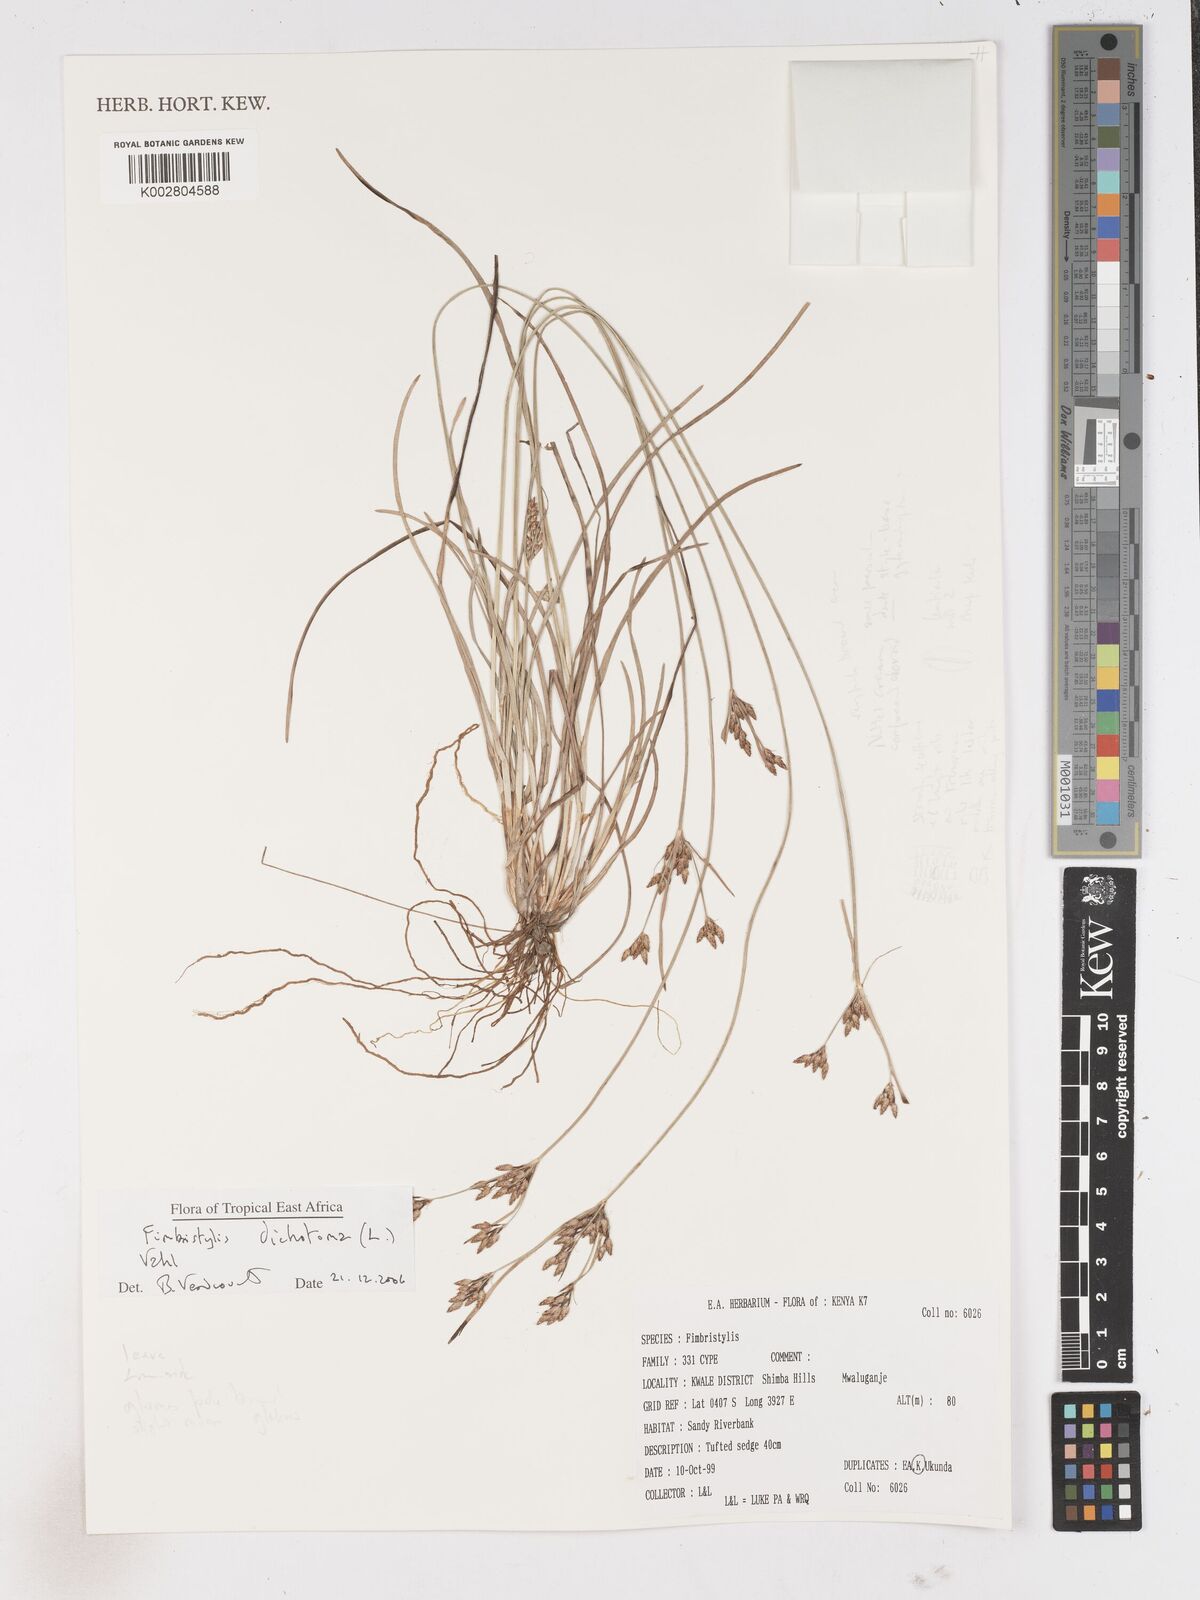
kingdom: Plantae
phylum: Tracheophyta
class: Liliopsida
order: Poales
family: Cyperaceae
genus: Fimbristylis
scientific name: Fimbristylis dichotoma
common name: Forked fimbry
